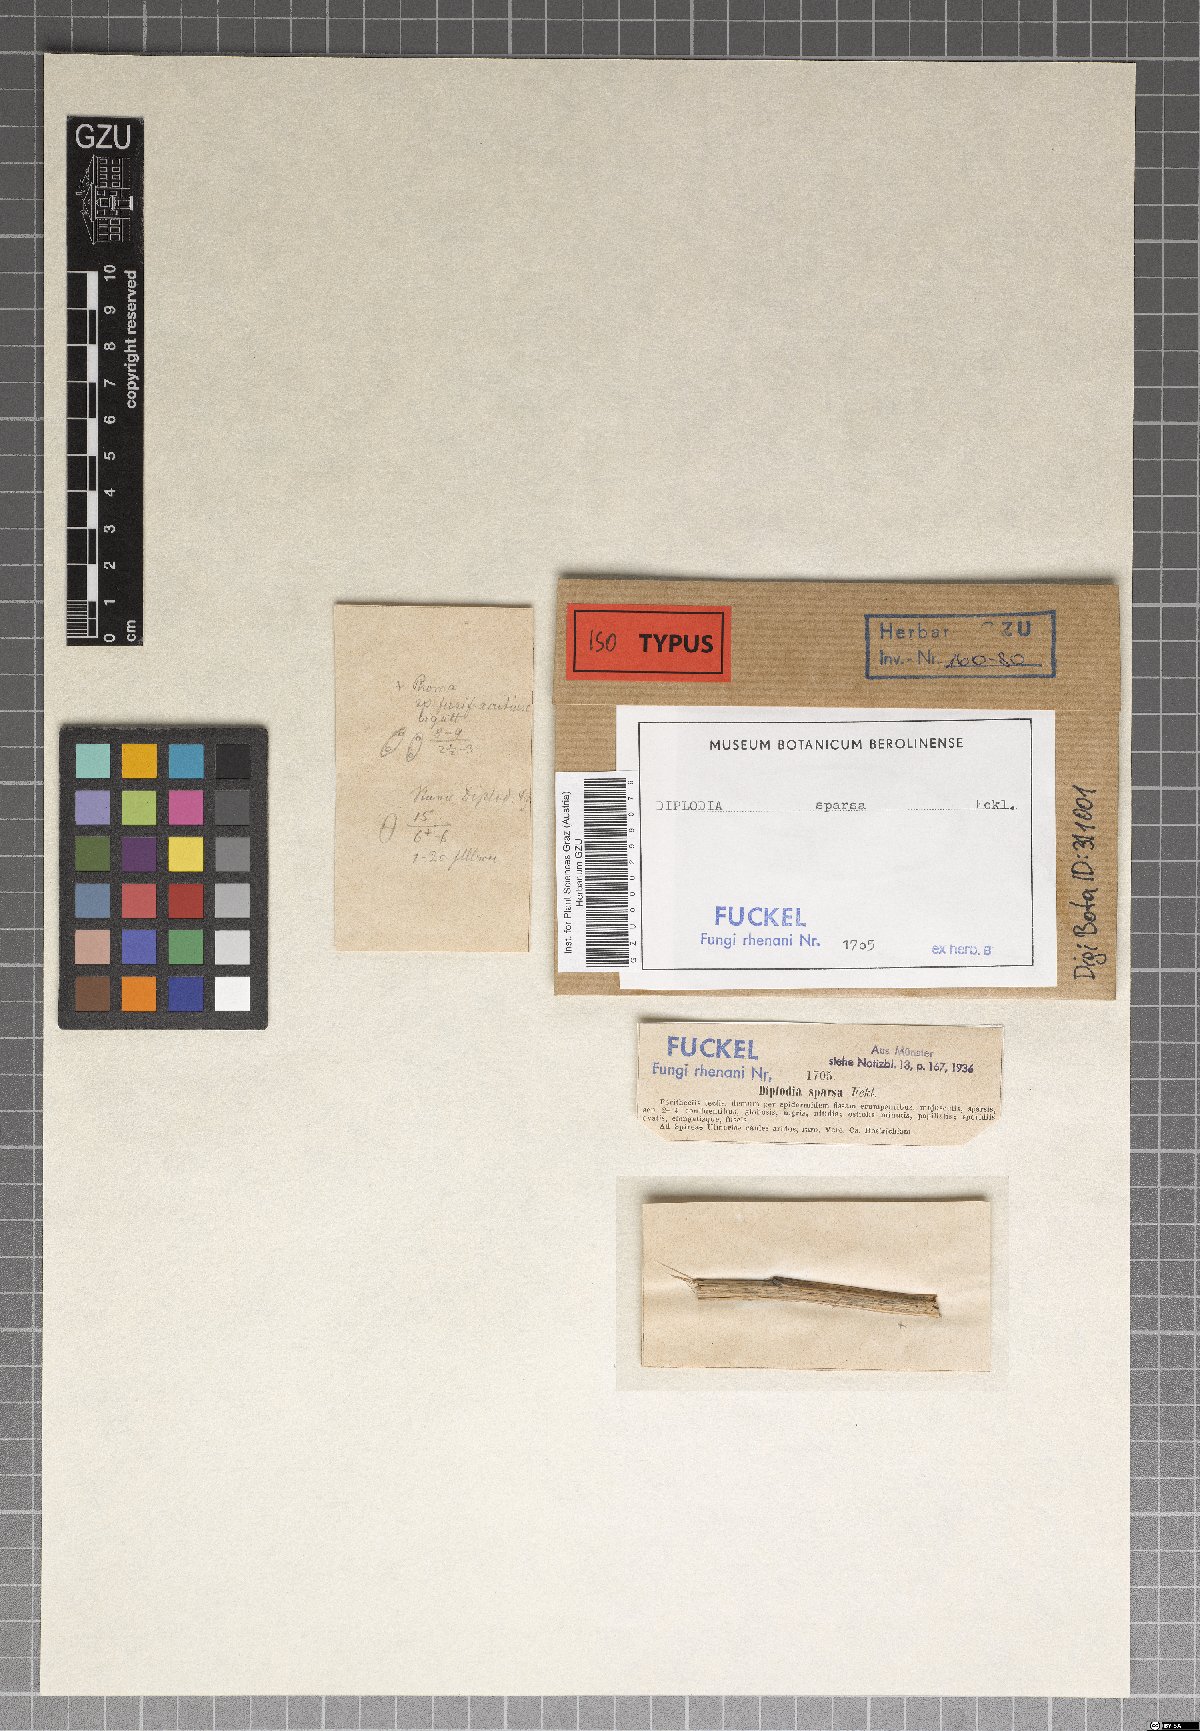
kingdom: Fungi
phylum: Ascomycota
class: Dothideomycetes
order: Botryosphaeriales
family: Botryosphaeriaceae
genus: Diplodia
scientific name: Diplodia
